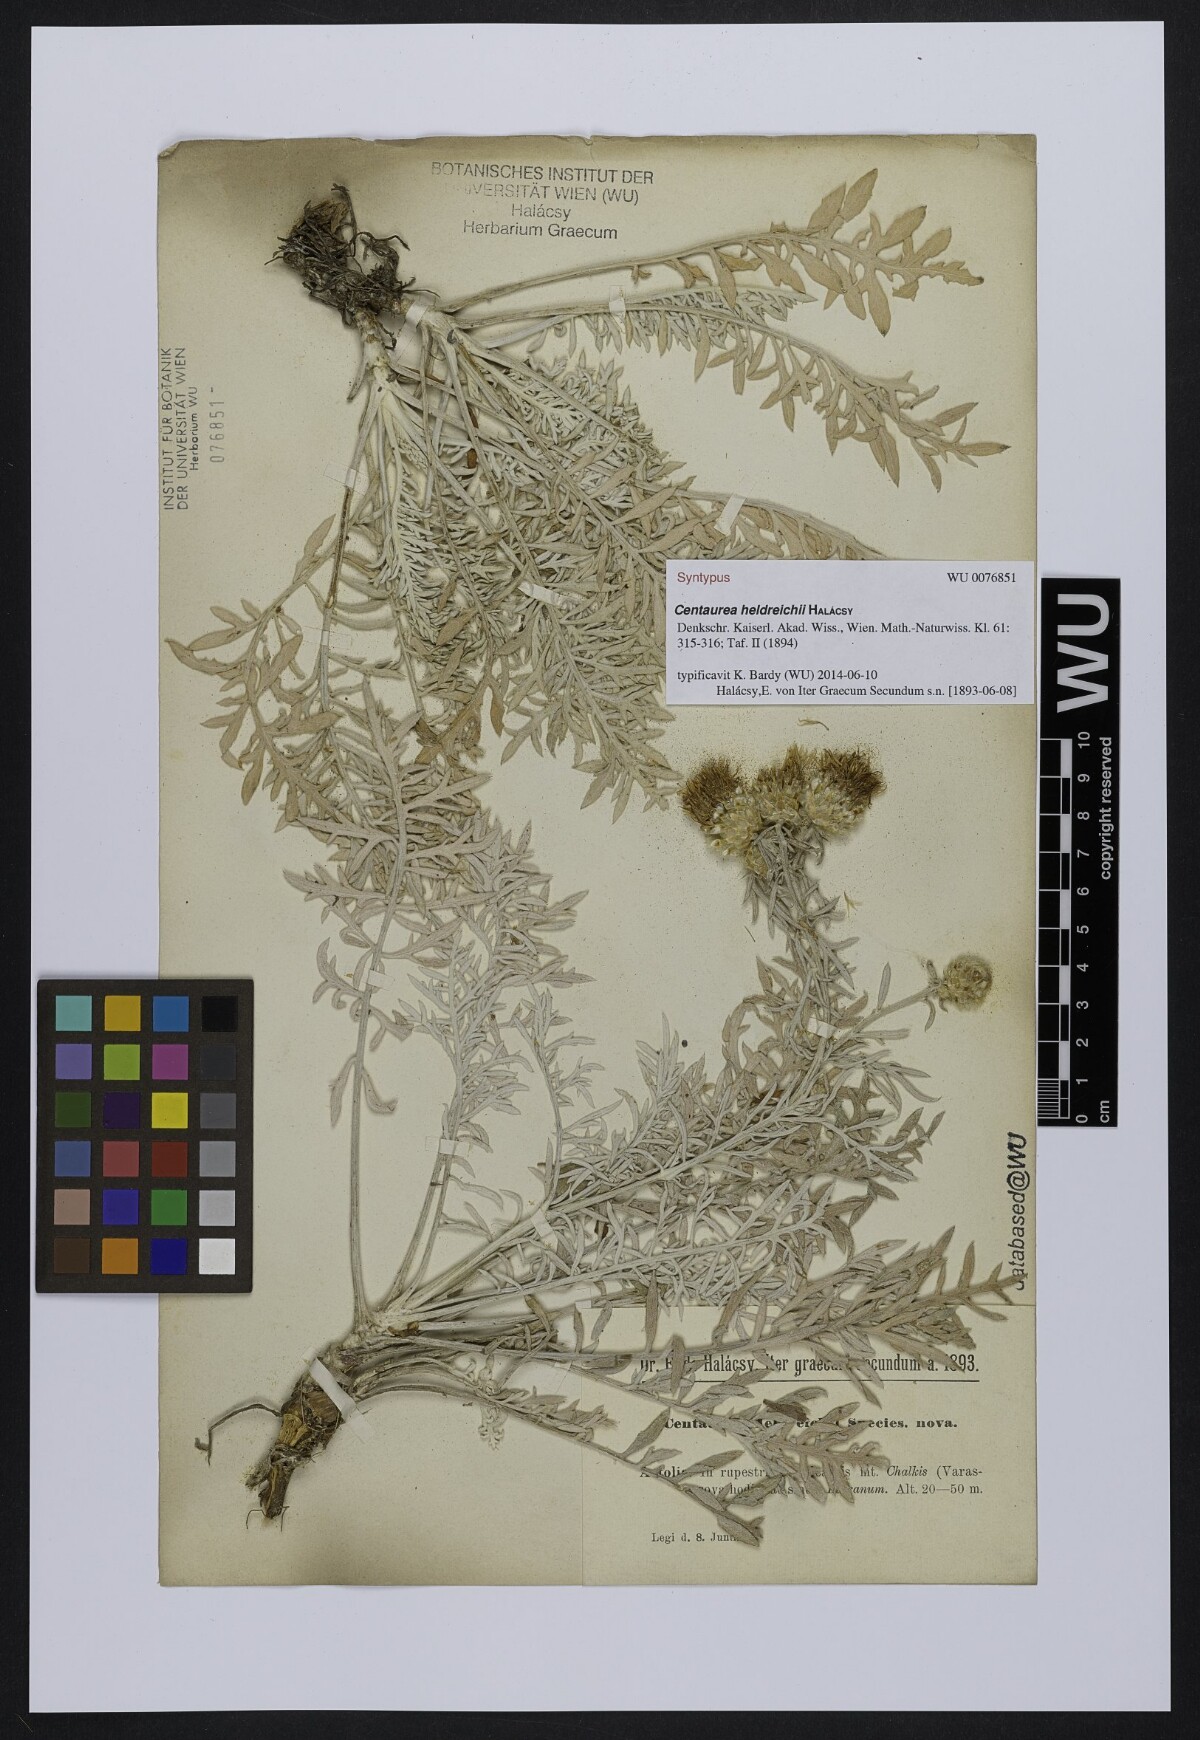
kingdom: Plantae
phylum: Tracheophyta
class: Magnoliopsida
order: Asterales
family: Asteraceae
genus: Centaurea
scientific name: Centaurea heldreichii
